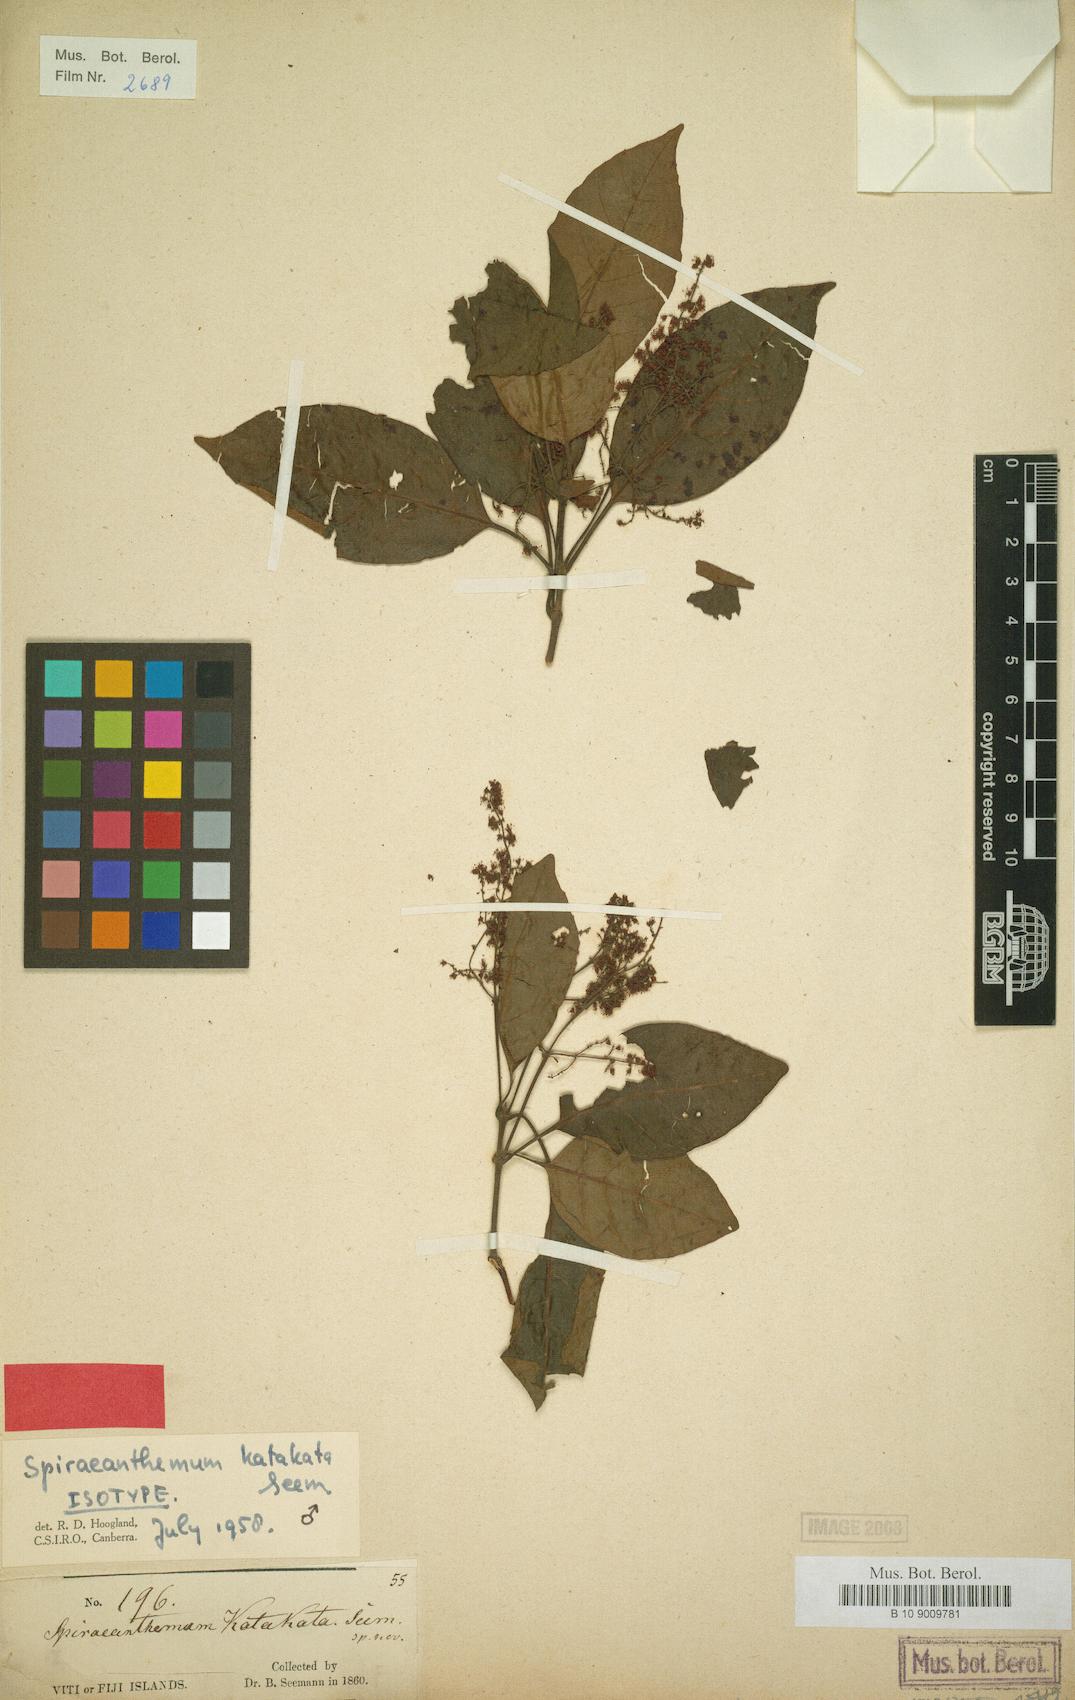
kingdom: Plantae
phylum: Tracheophyta
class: Magnoliopsida
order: Oxalidales
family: Cunoniaceae
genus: Weinmannia
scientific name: Weinmannia
